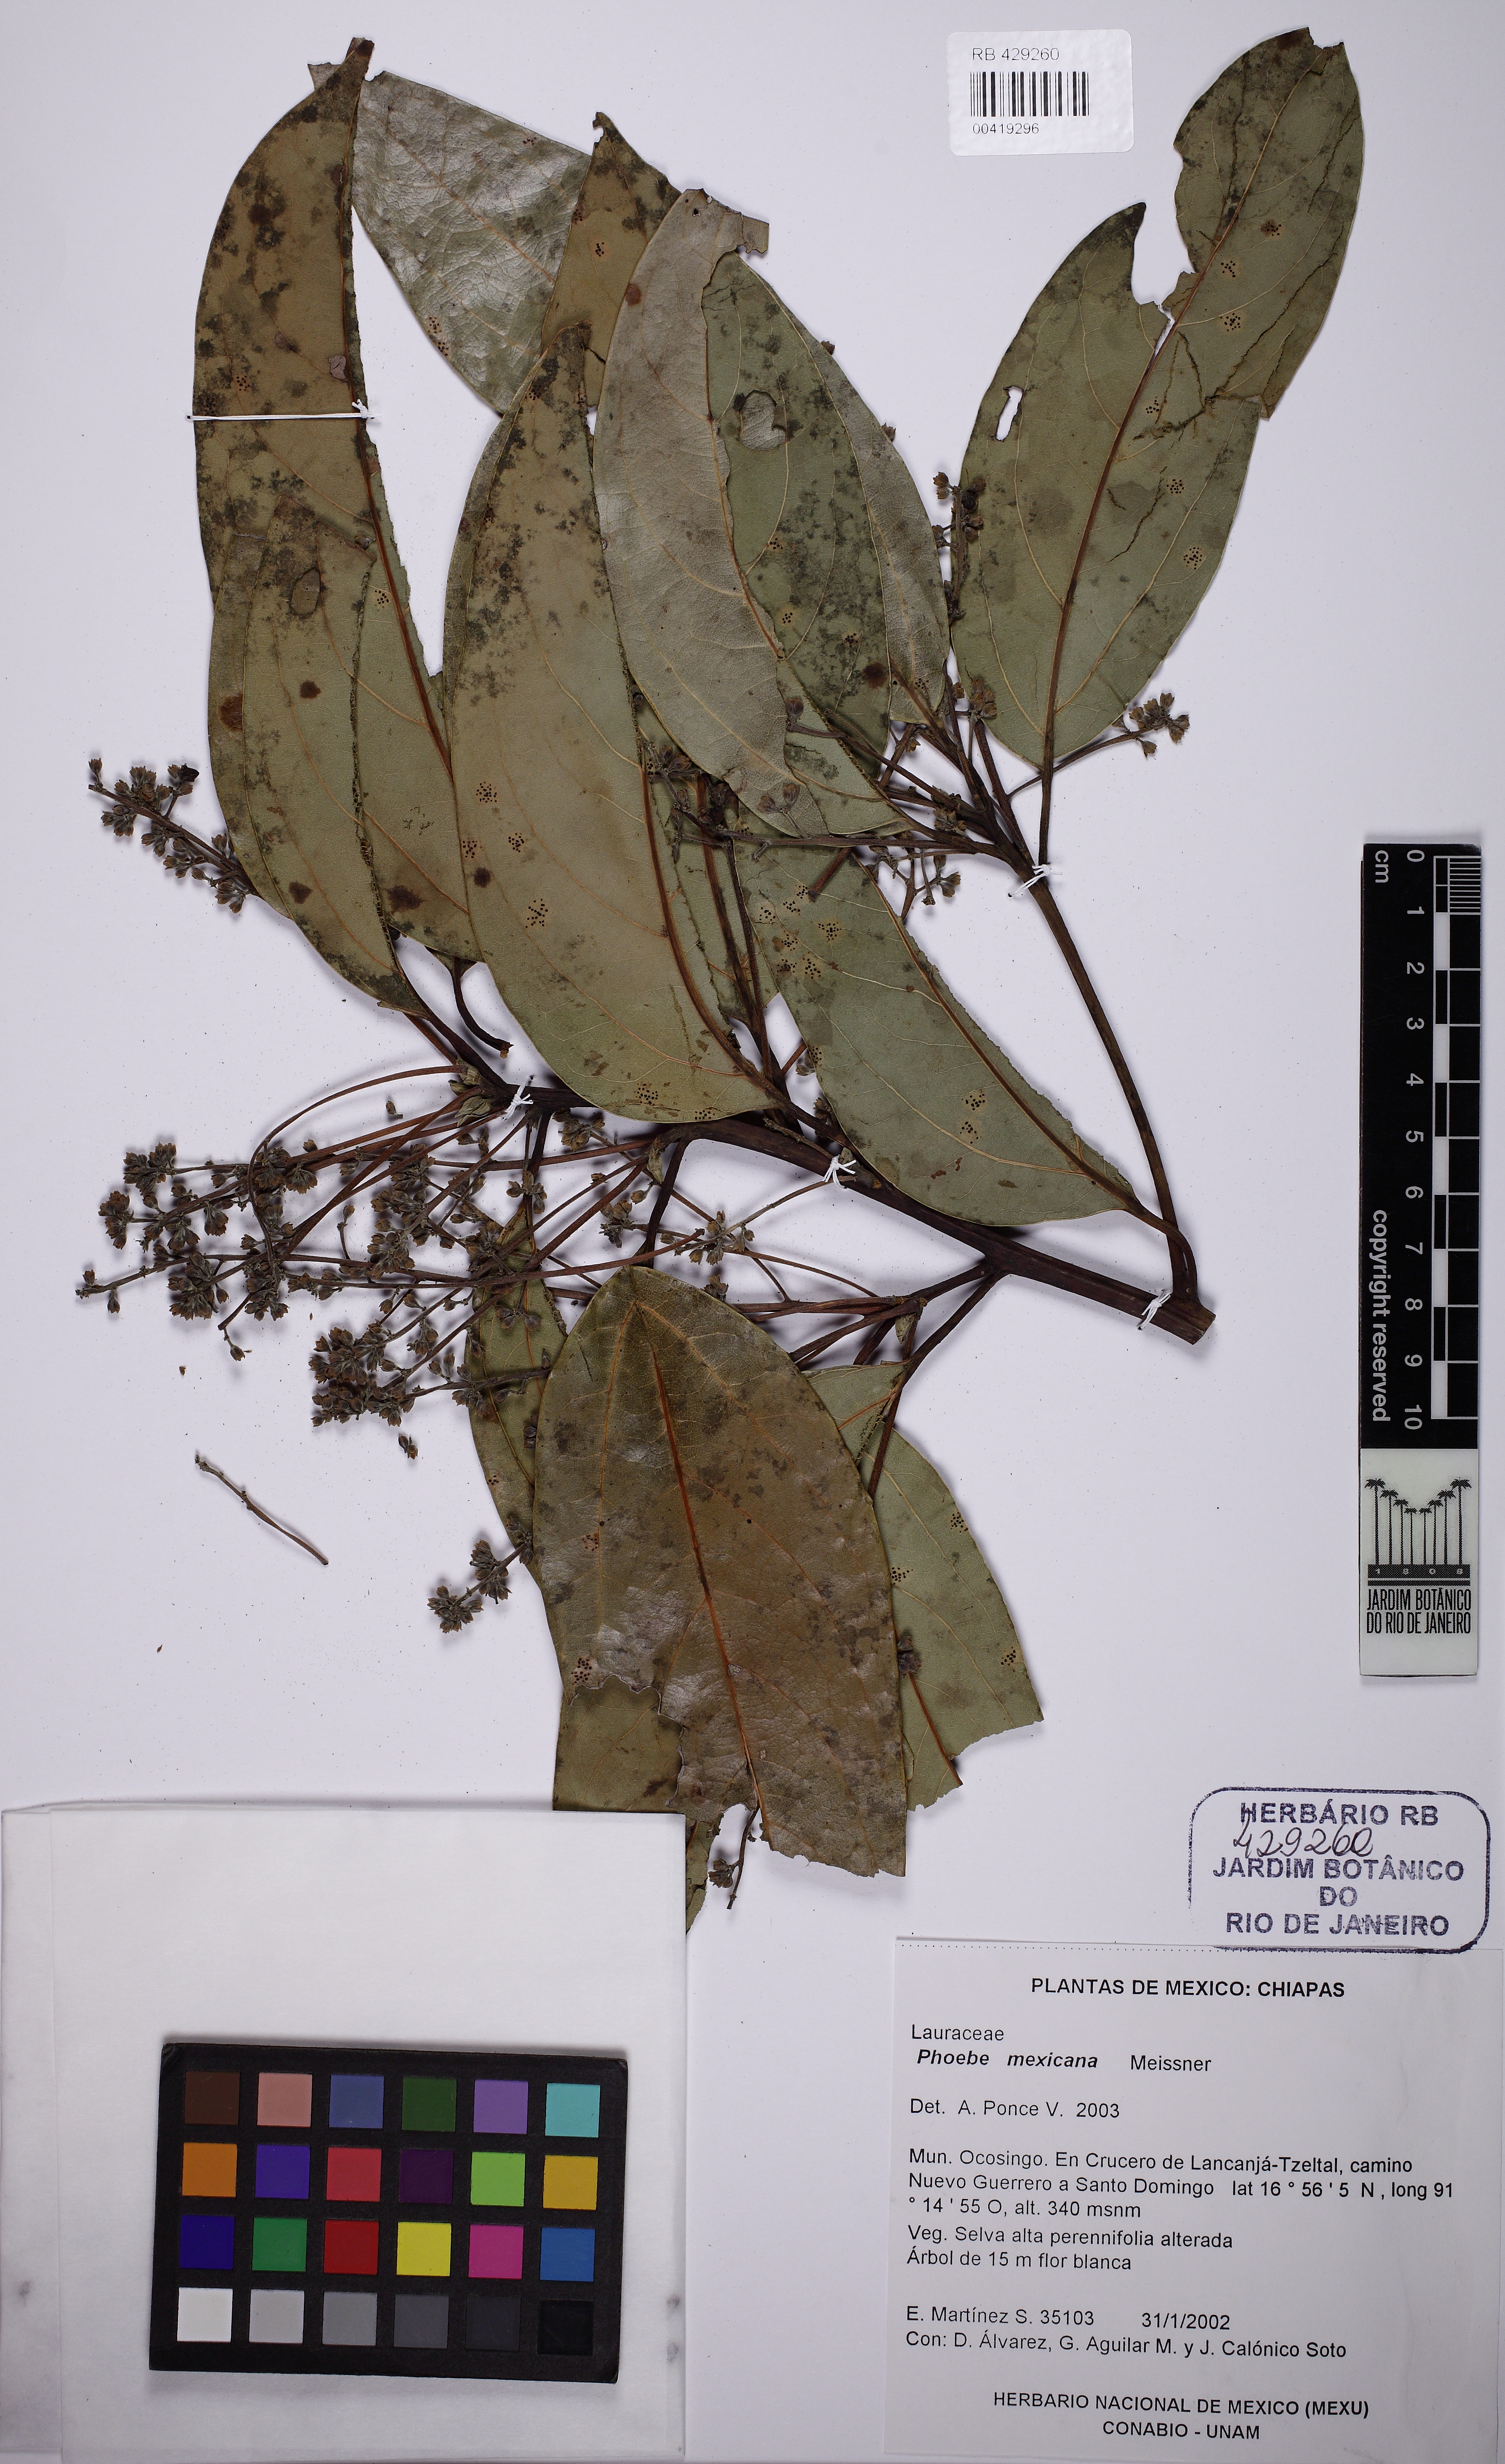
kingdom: Plantae
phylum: Tracheophyta
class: Magnoliopsida
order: Laurales
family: Lauraceae
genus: Aiouea
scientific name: Aiouea montana
